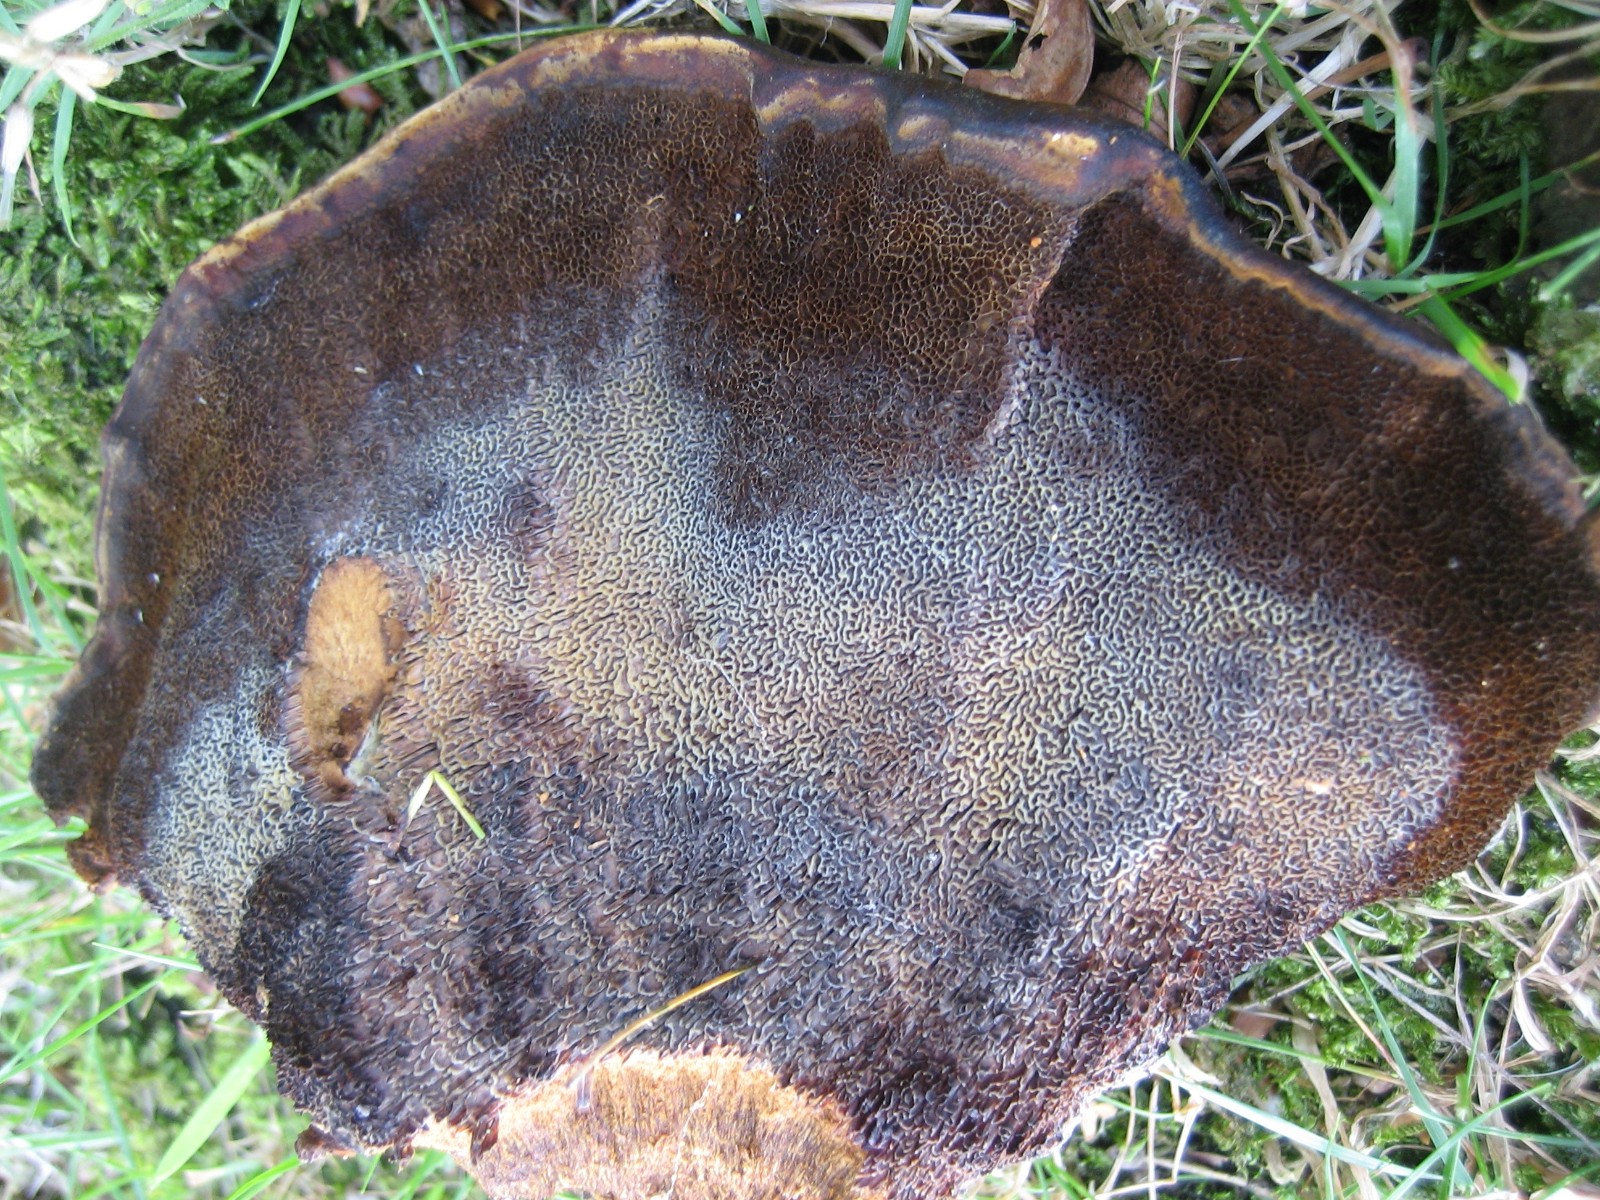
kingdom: Fungi
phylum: Basidiomycota
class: Agaricomycetes
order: Polyporales
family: Laetiporaceae
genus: Phaeolus
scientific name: Phaeolus schweinitzii
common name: brunporesvamp
